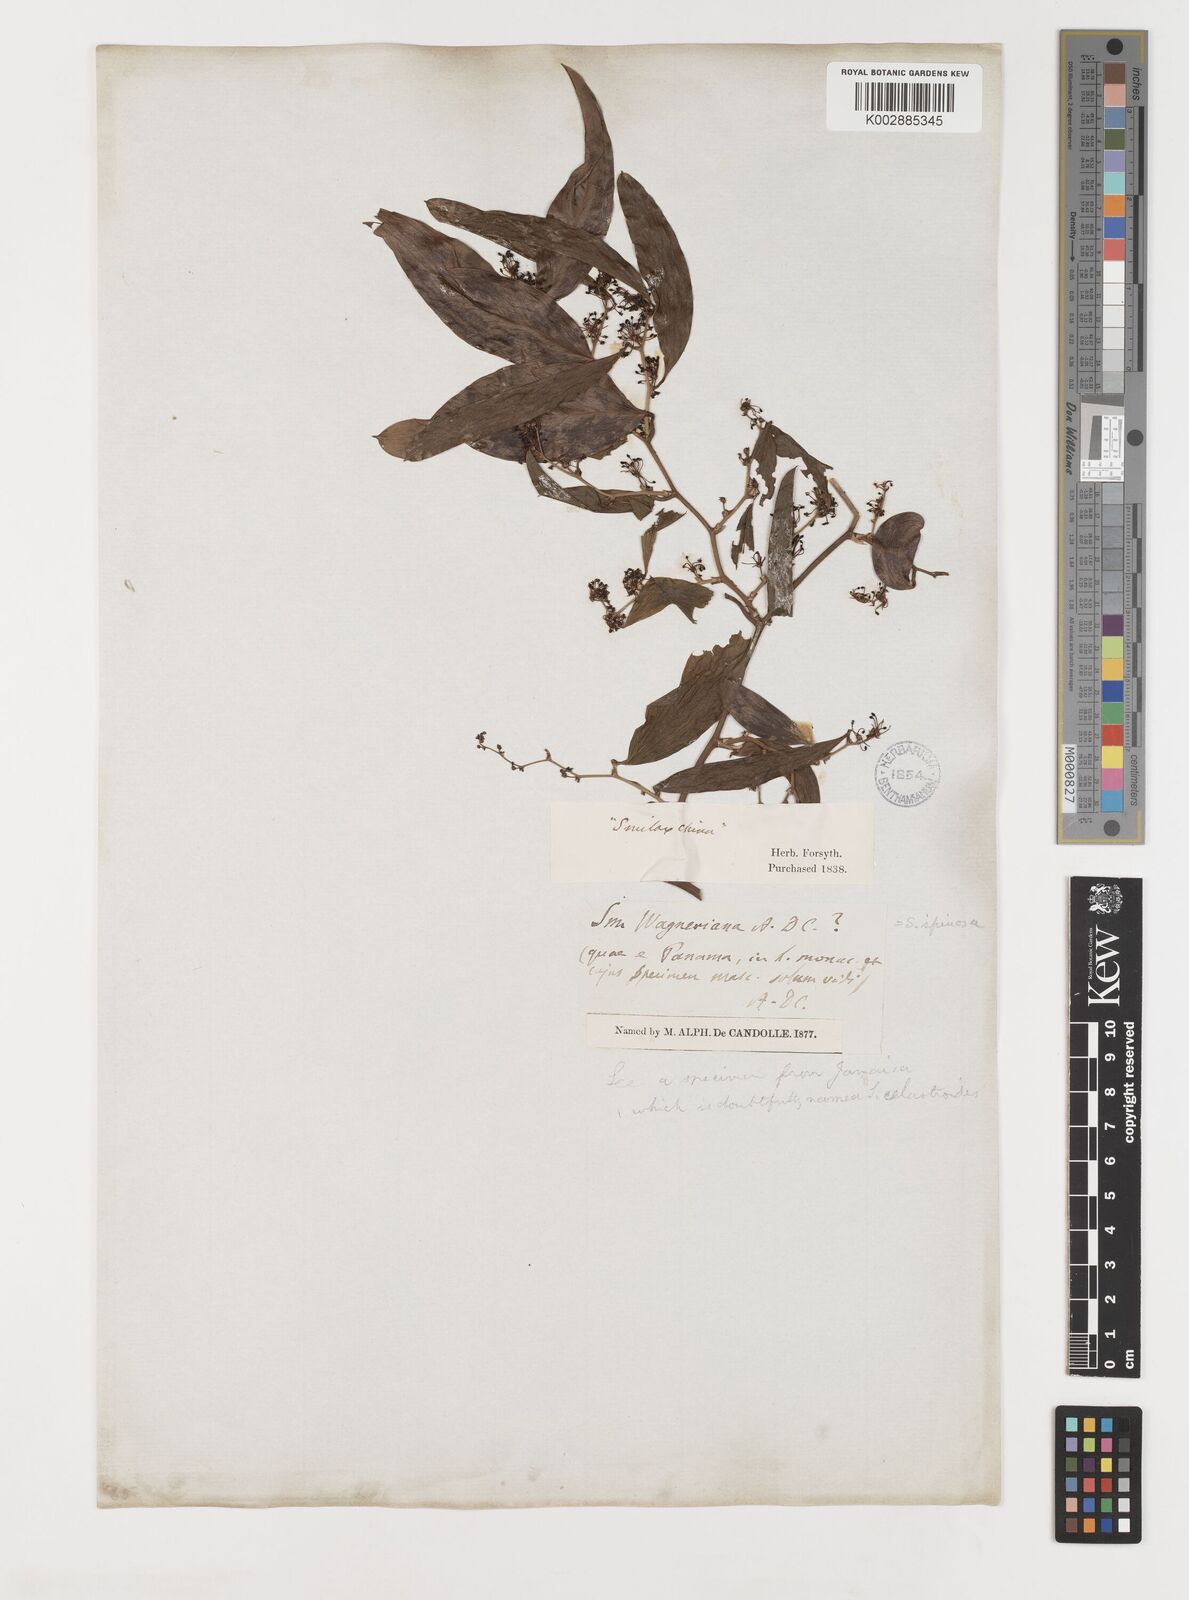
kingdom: Plantae
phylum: Tracheophyta
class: Liliopsida
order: Liliales
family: Smilacaceae
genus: Smilax
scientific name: Smilax spinosa
